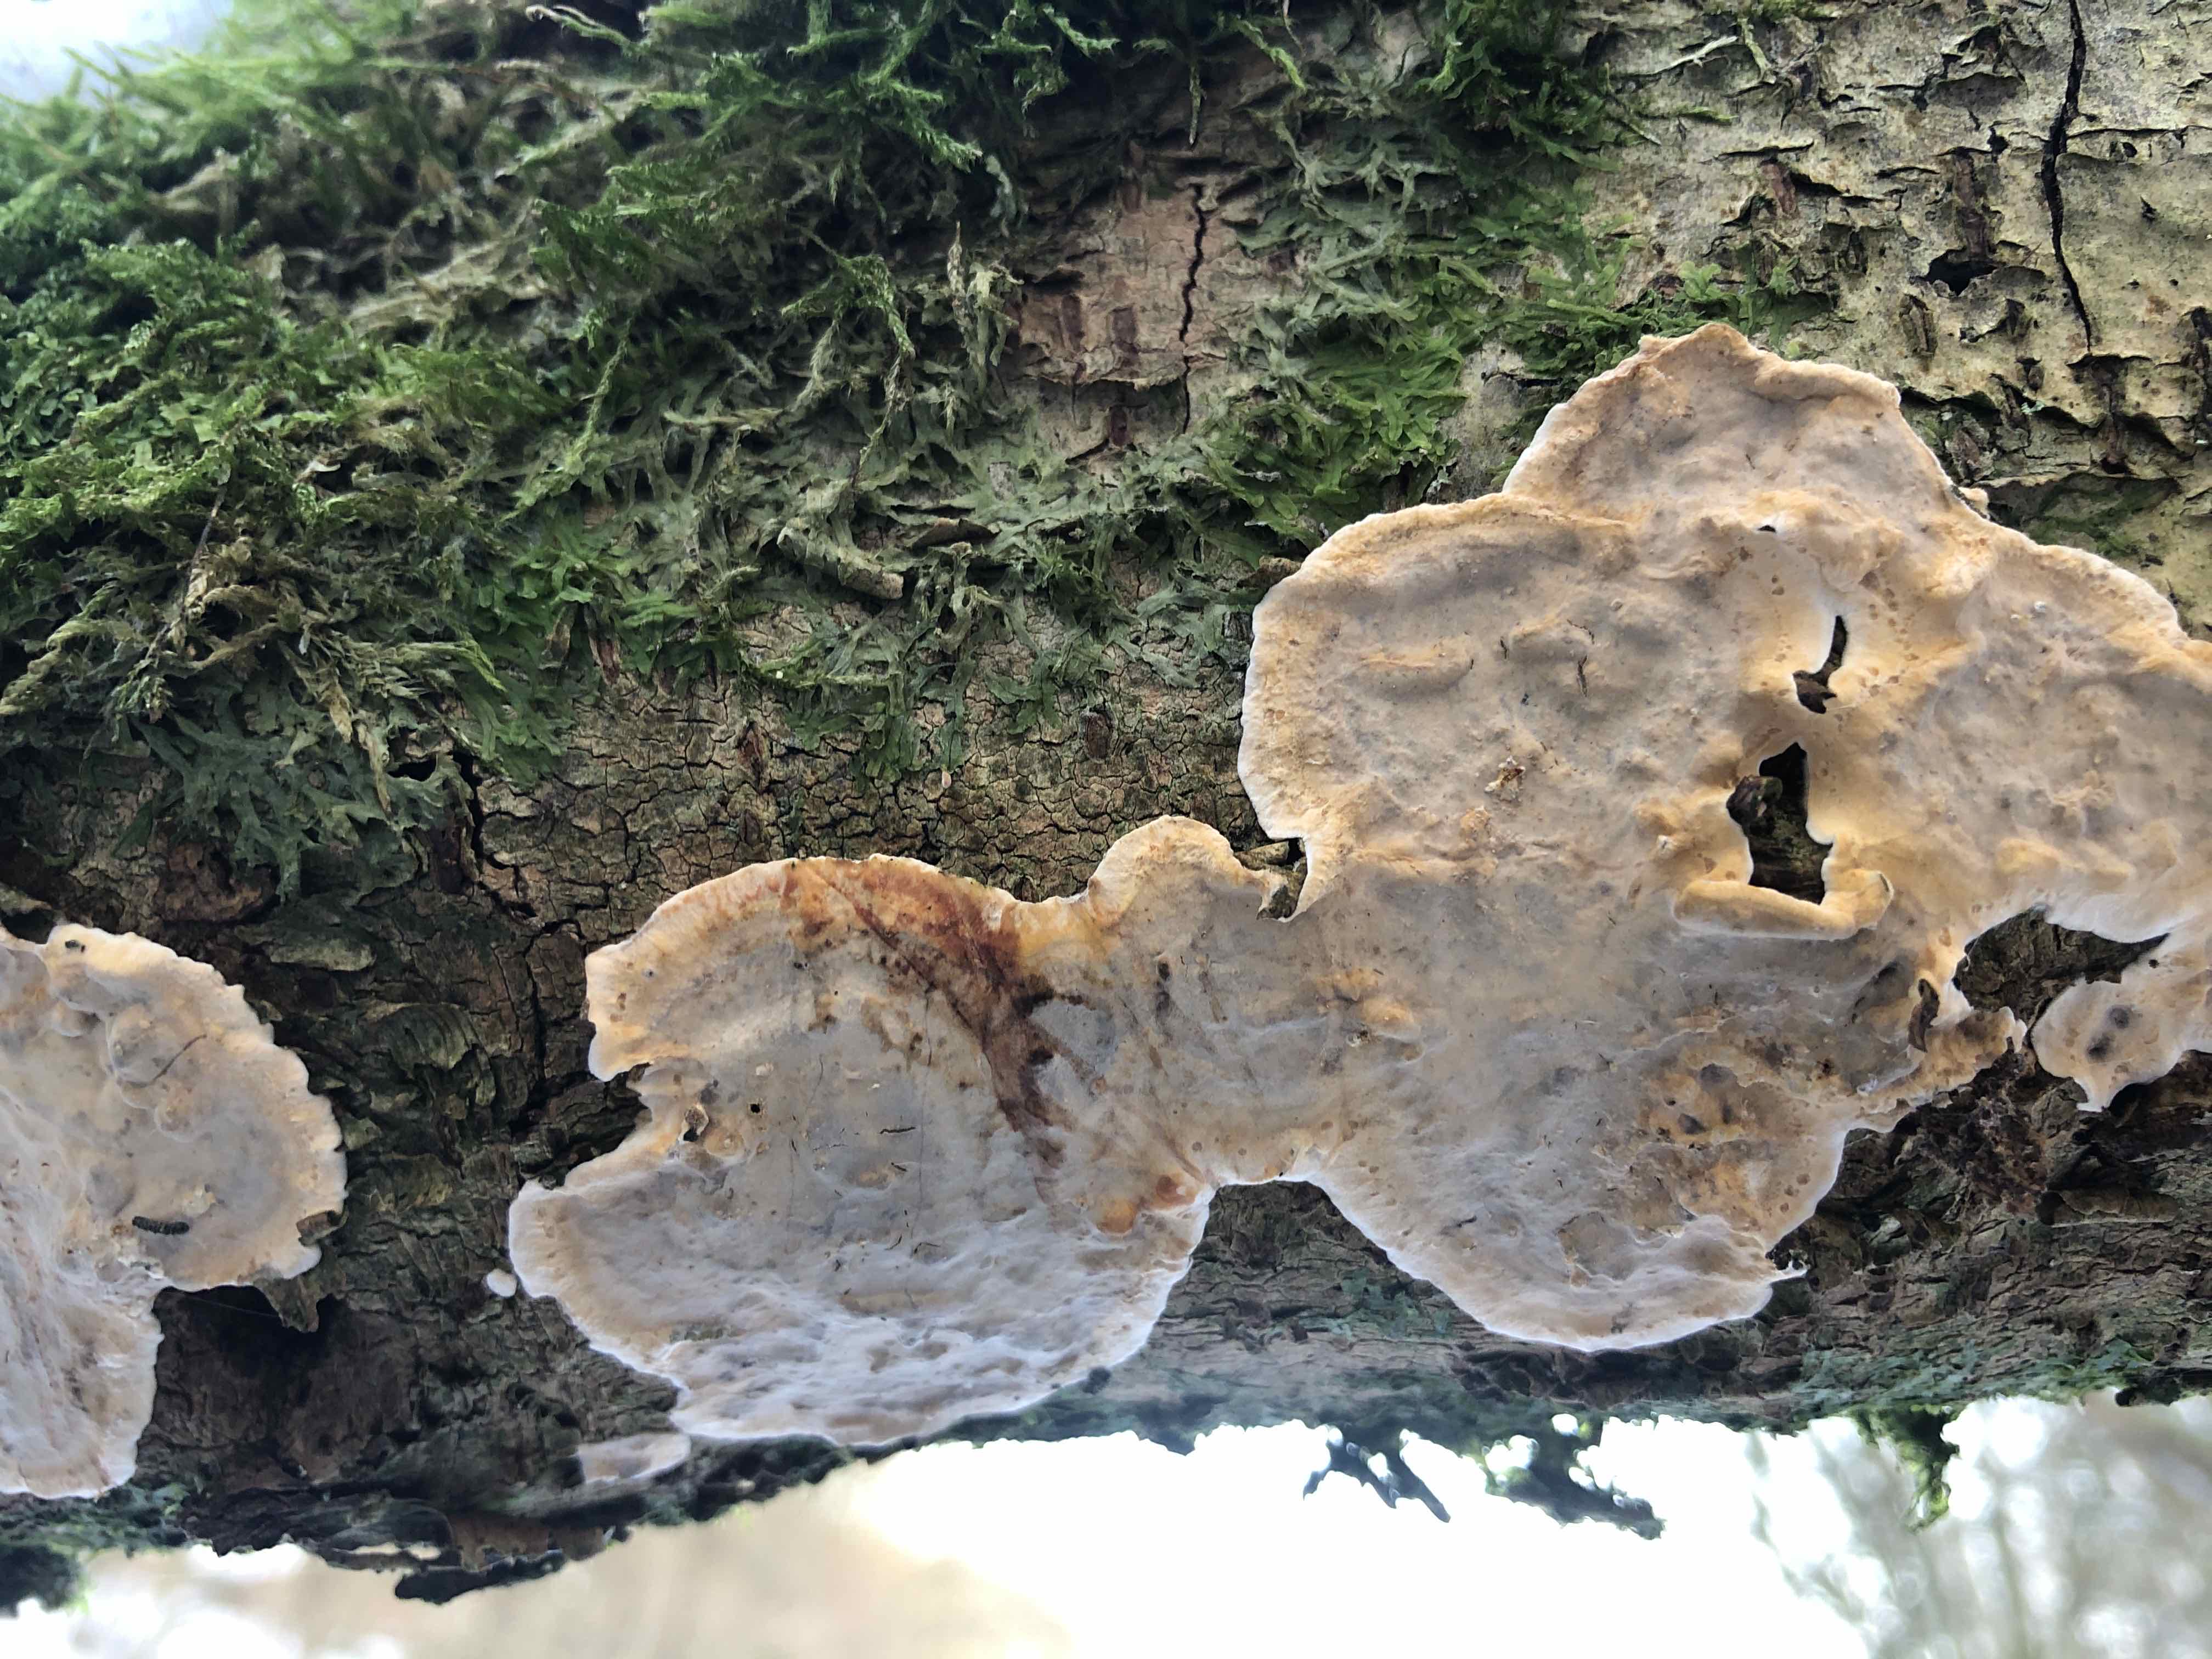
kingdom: Fungi
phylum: Basidiomycota
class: Agaricomycetes
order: Russulales
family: Stereaceae
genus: Stereum
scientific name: Stereum rugosum
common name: rynket lædersvamp
